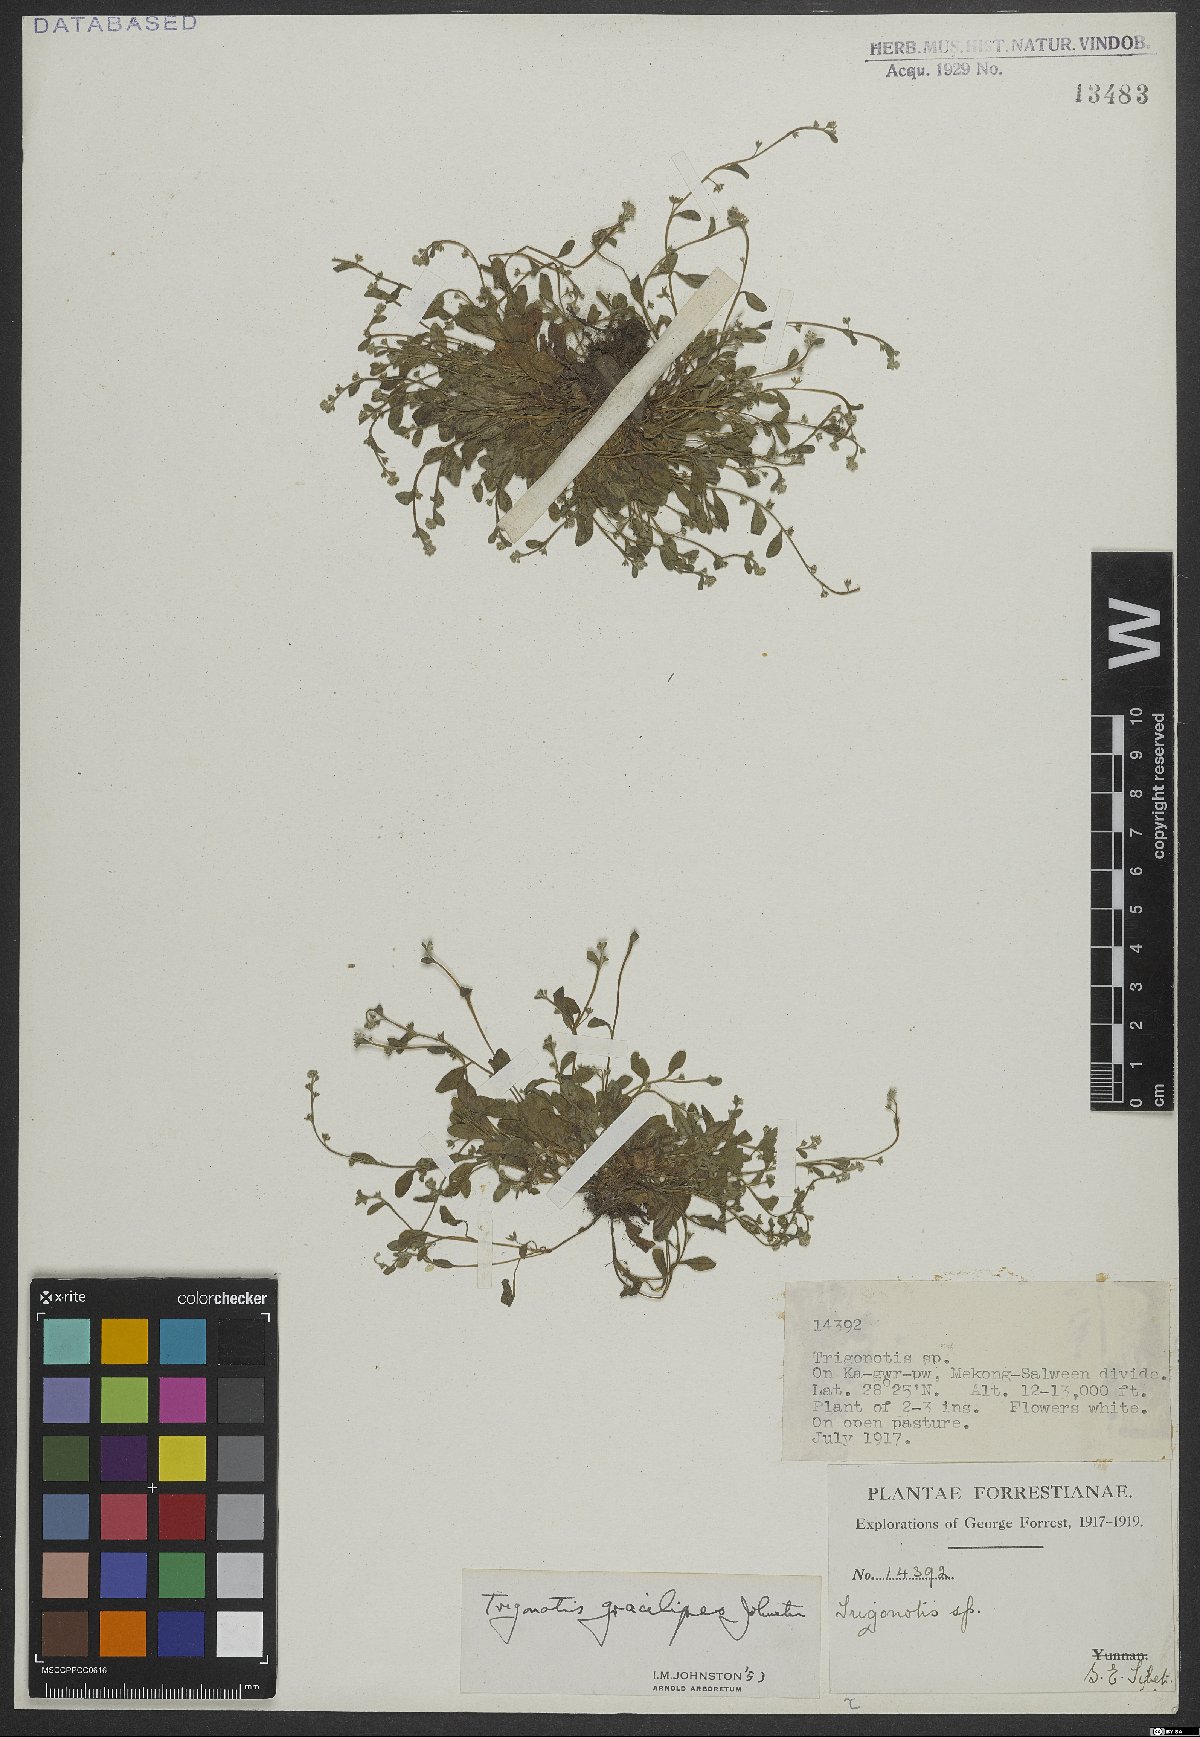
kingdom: Plantae
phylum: Tracheophyta
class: Magnoliopsida
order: Boraginales
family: Boraginaceae
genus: Trigonotis
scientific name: Trigonotis gracilipes
